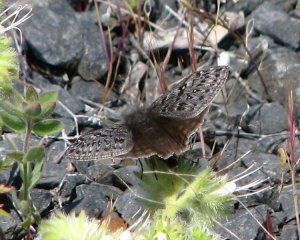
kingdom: Animalia
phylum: Arthropoda
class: Insecta
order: Lepidoptera
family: Hesperiidae
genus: Erynnis
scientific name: Erynnis propertius
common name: Propertius Duskywing
